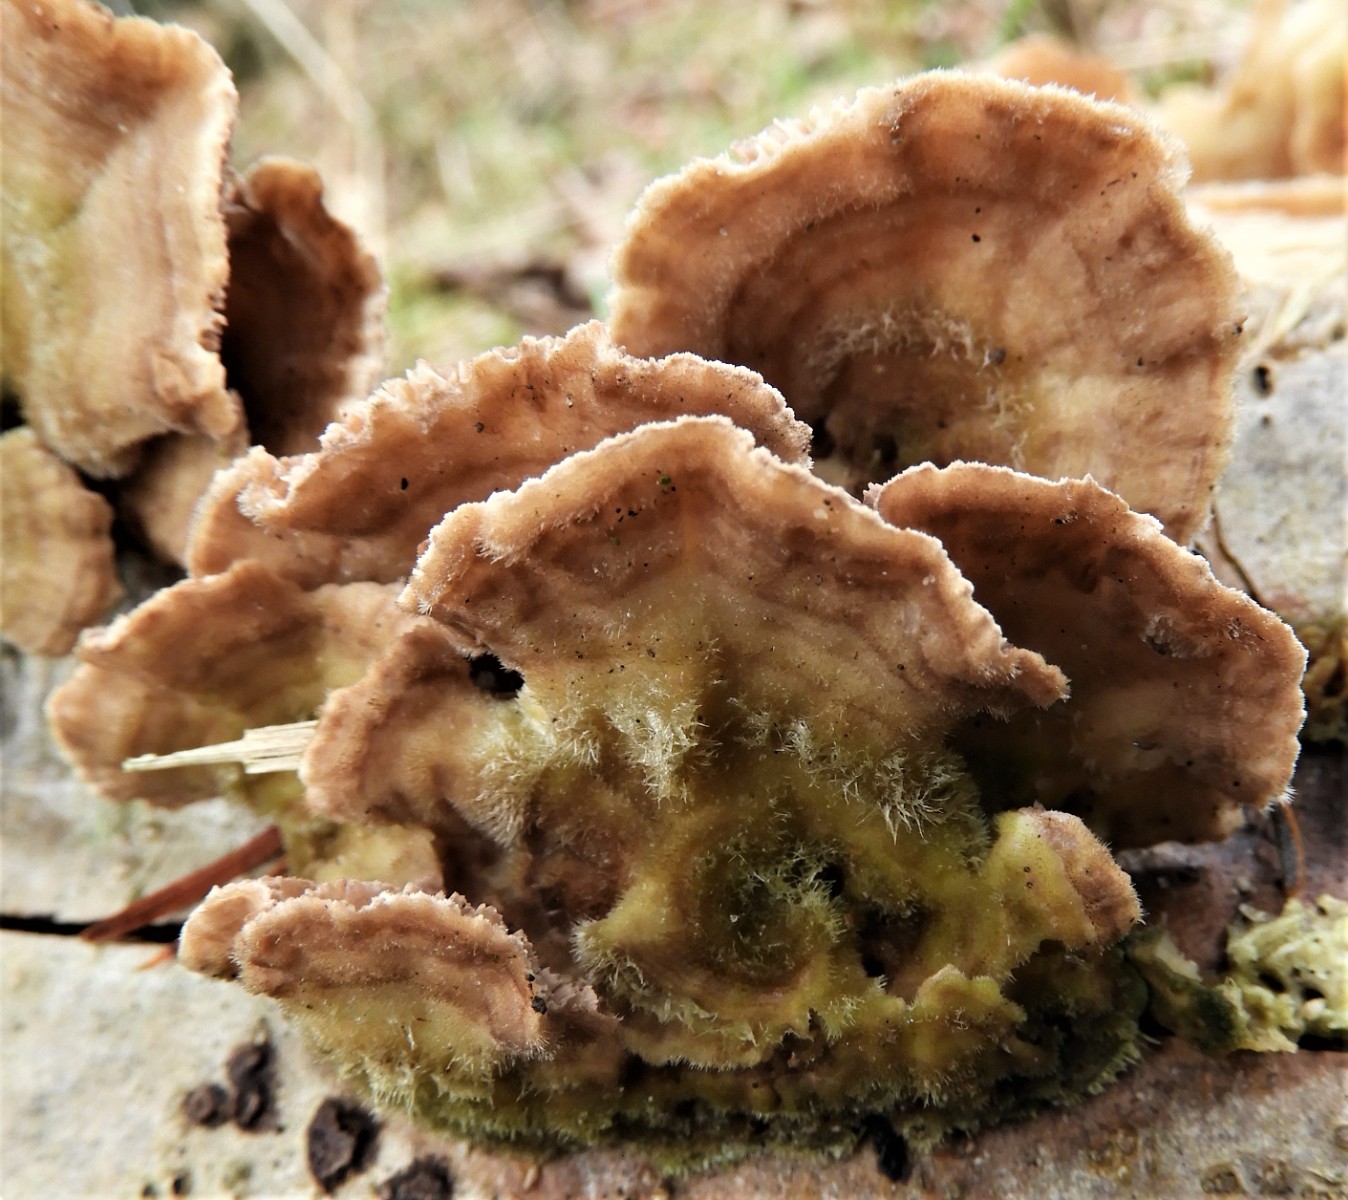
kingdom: Fungi
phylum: Basidiomycota
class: Agaricomycetes
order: Polyporales
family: Polyporaceae
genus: Lenzites
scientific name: Lenzites betulinus
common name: birke-læderporesvamp
